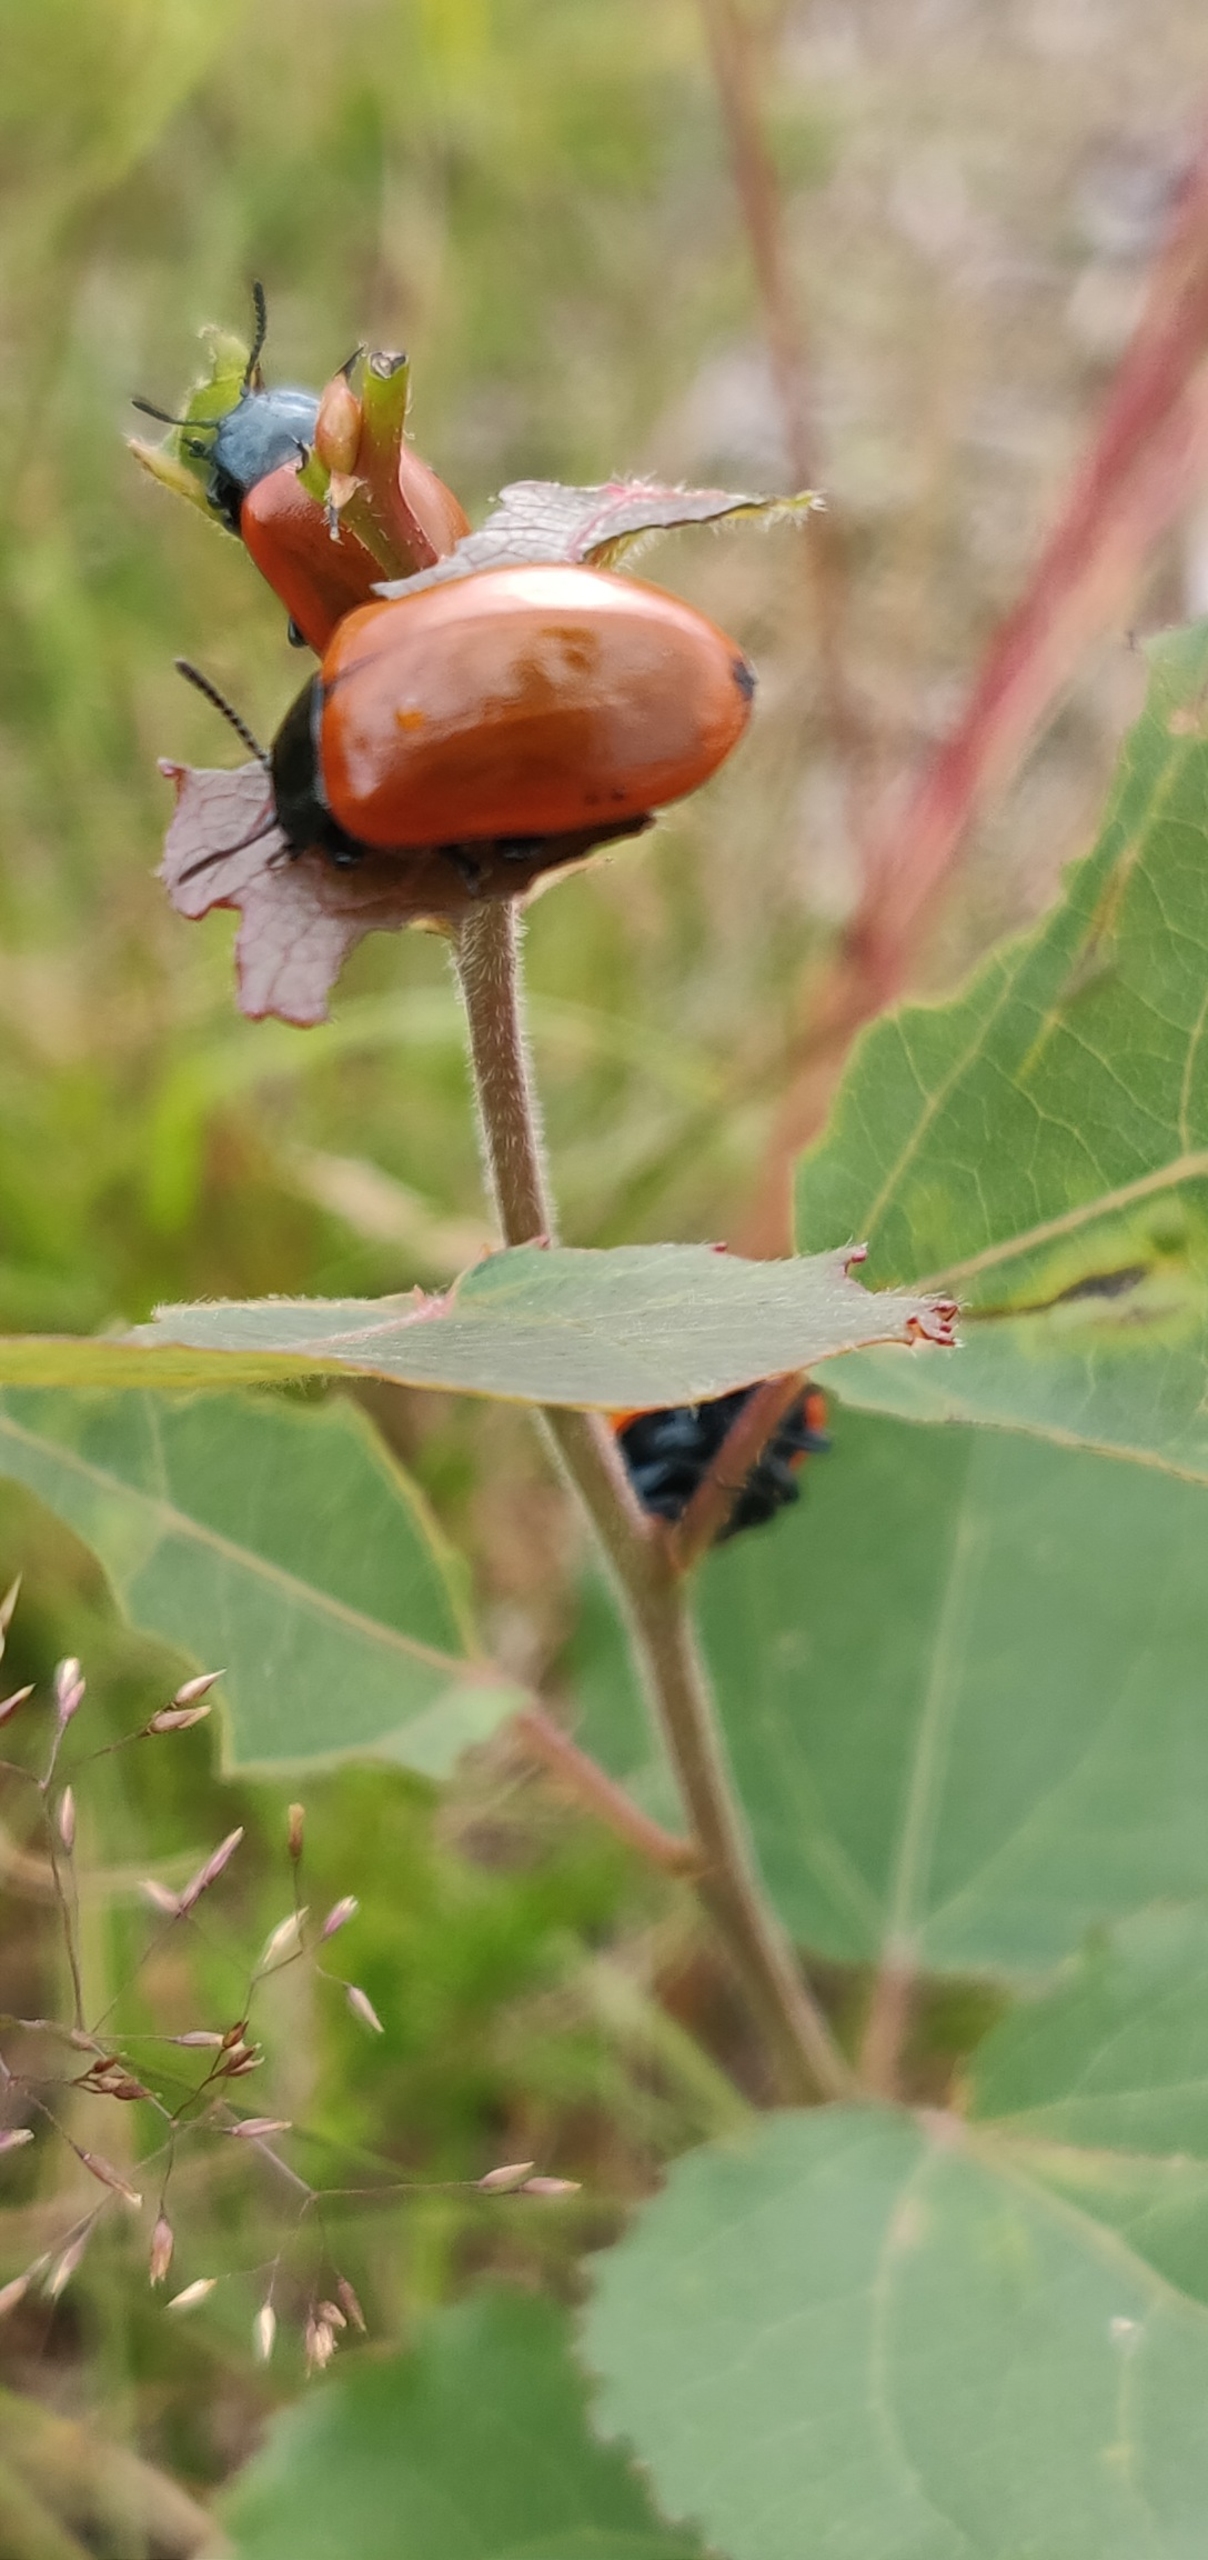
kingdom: Animalia
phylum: Arthropoda
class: Insecta
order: Coleoptera
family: Chrysomelidae
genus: Chrysomela
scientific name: Chrysomela populi
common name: Poppelbladbille
